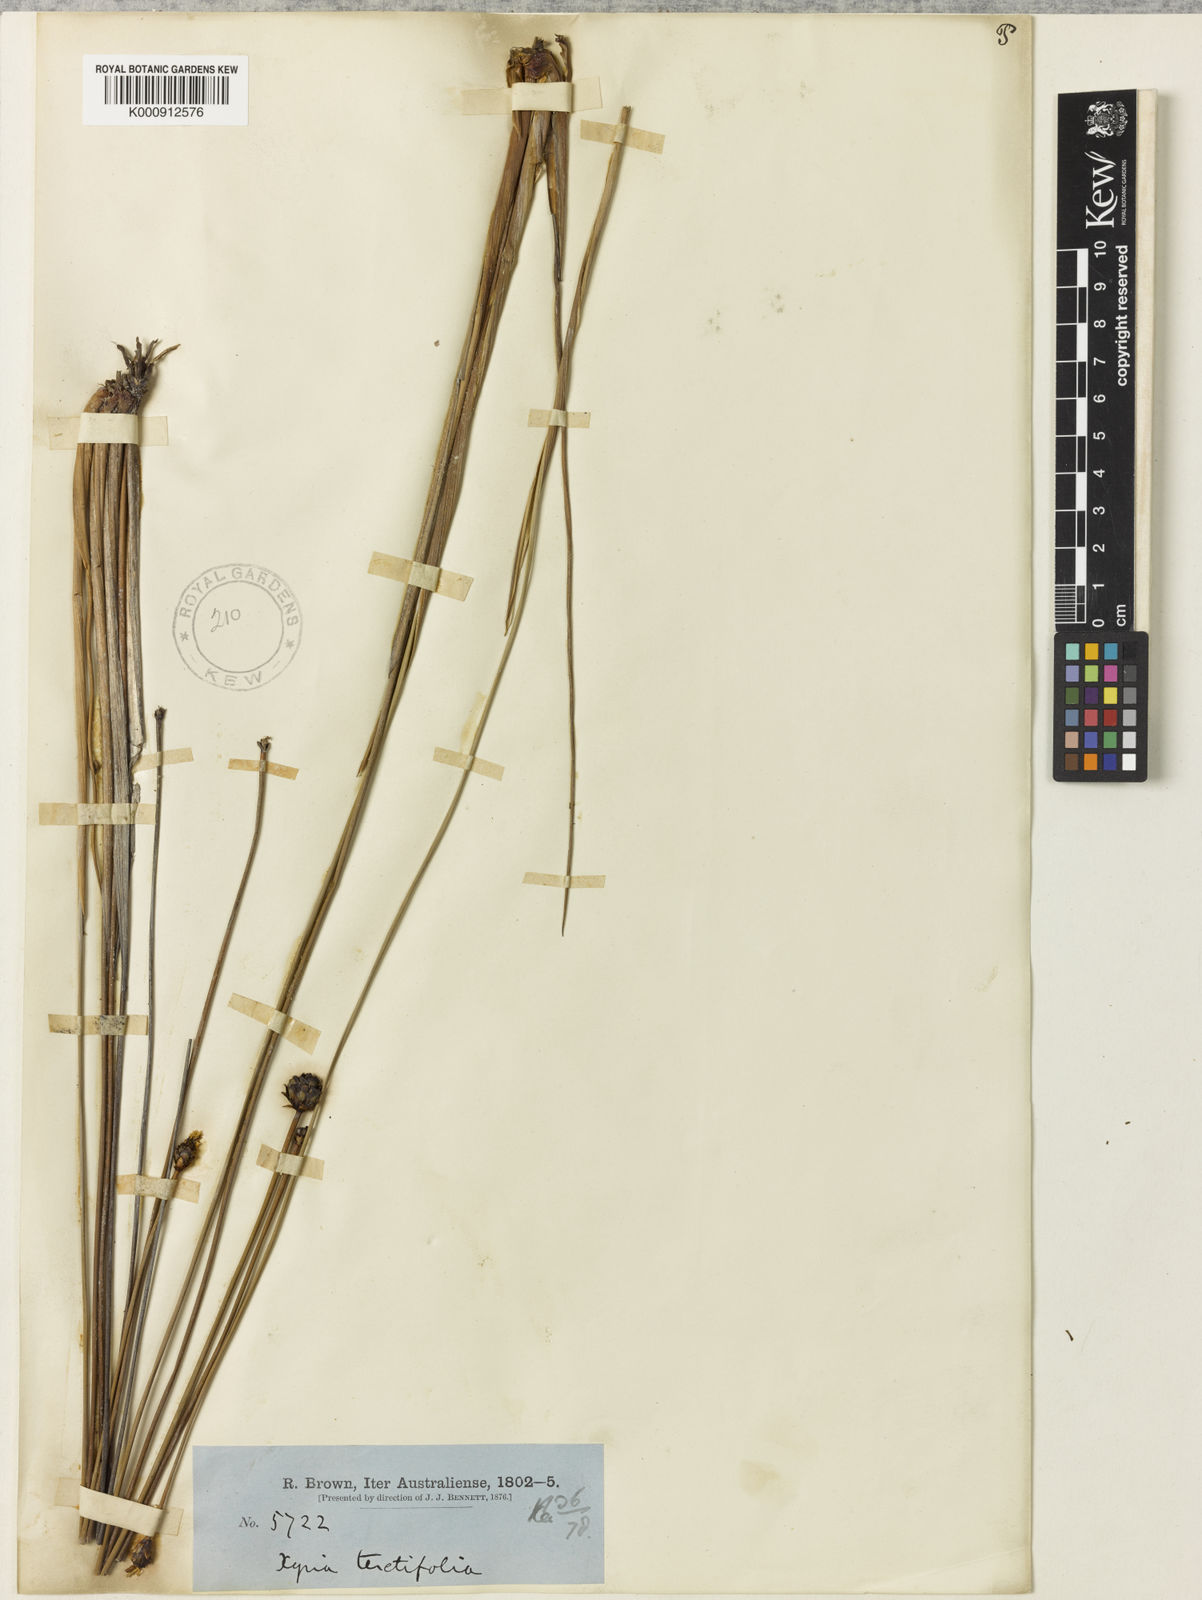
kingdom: Plantae
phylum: Tracheophyta
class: Liliopsida
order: Poales
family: Xyridaceae
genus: Xyris
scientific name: Xyris
